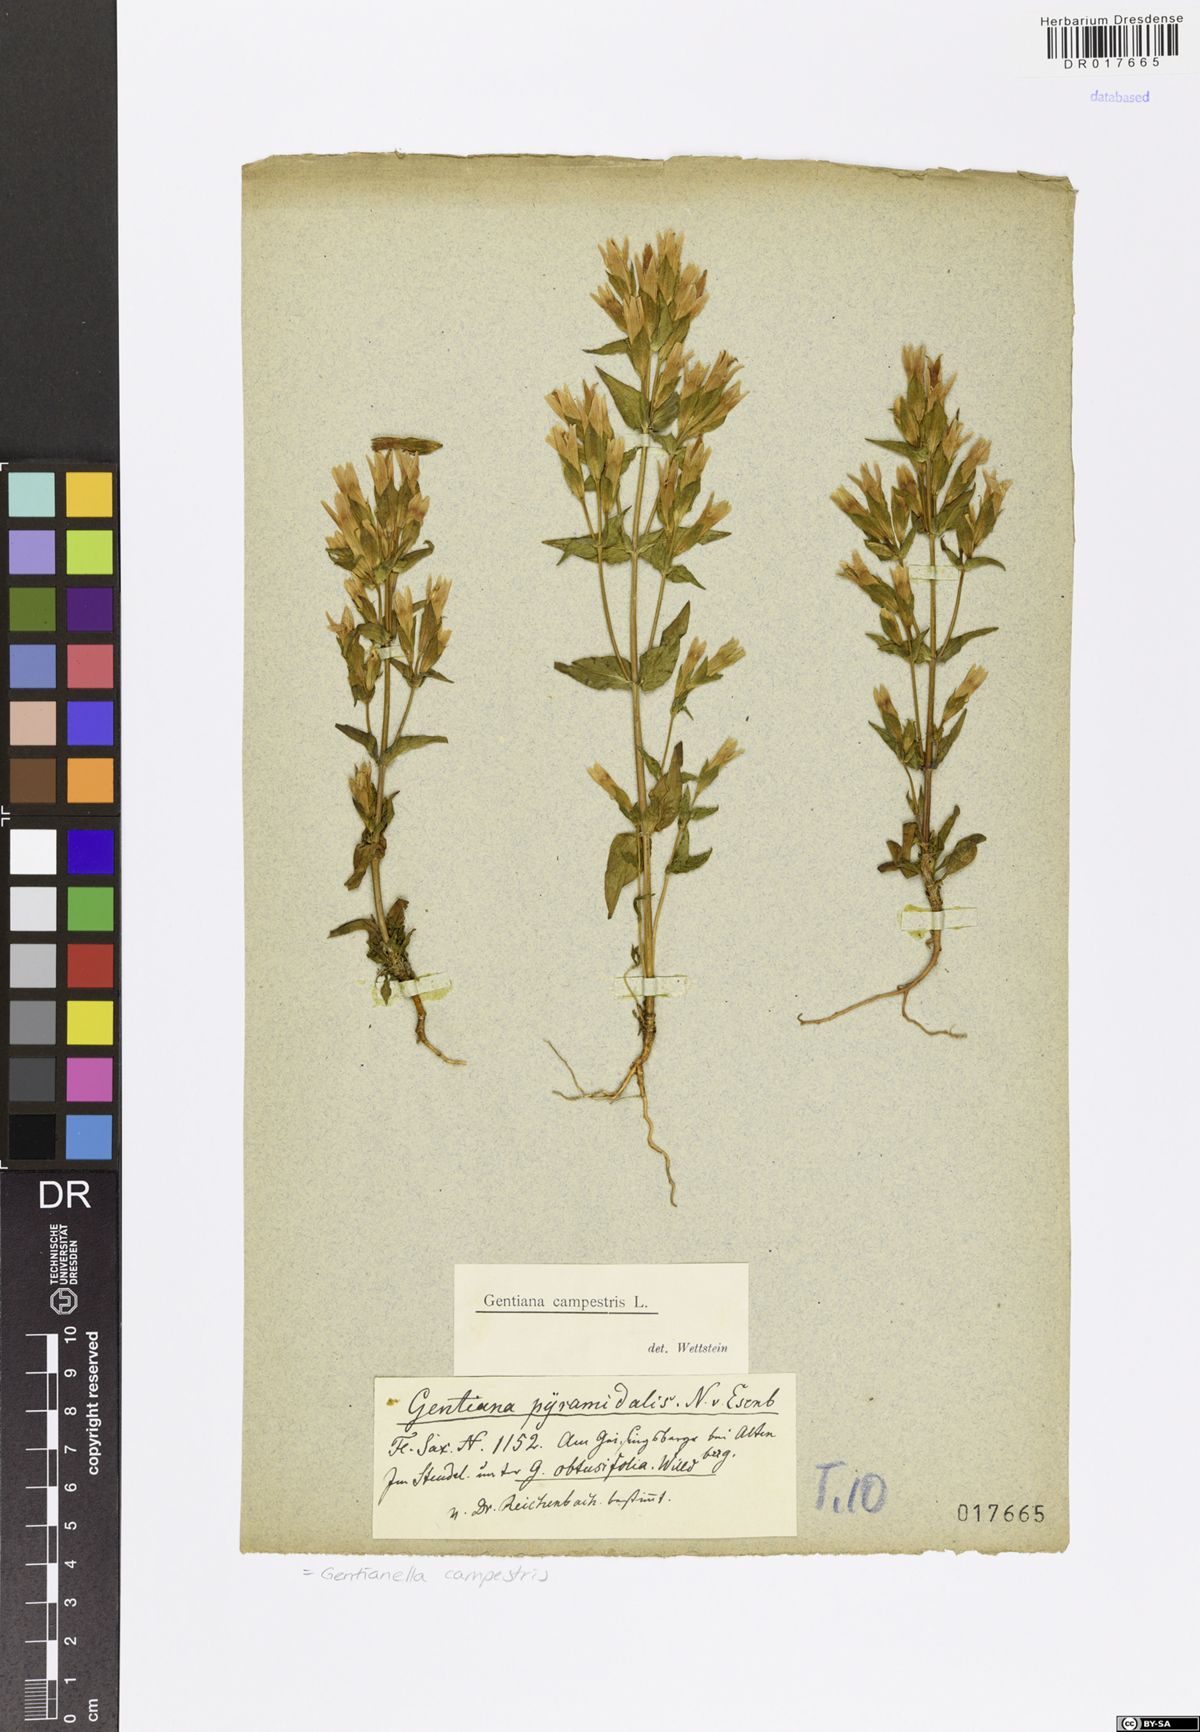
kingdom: Plantae
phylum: Tracheophyta
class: Magnoliopsida
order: Gentianales
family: Gentianaceae
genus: Gentianella
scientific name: Gentianella campestris
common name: Field gentian
